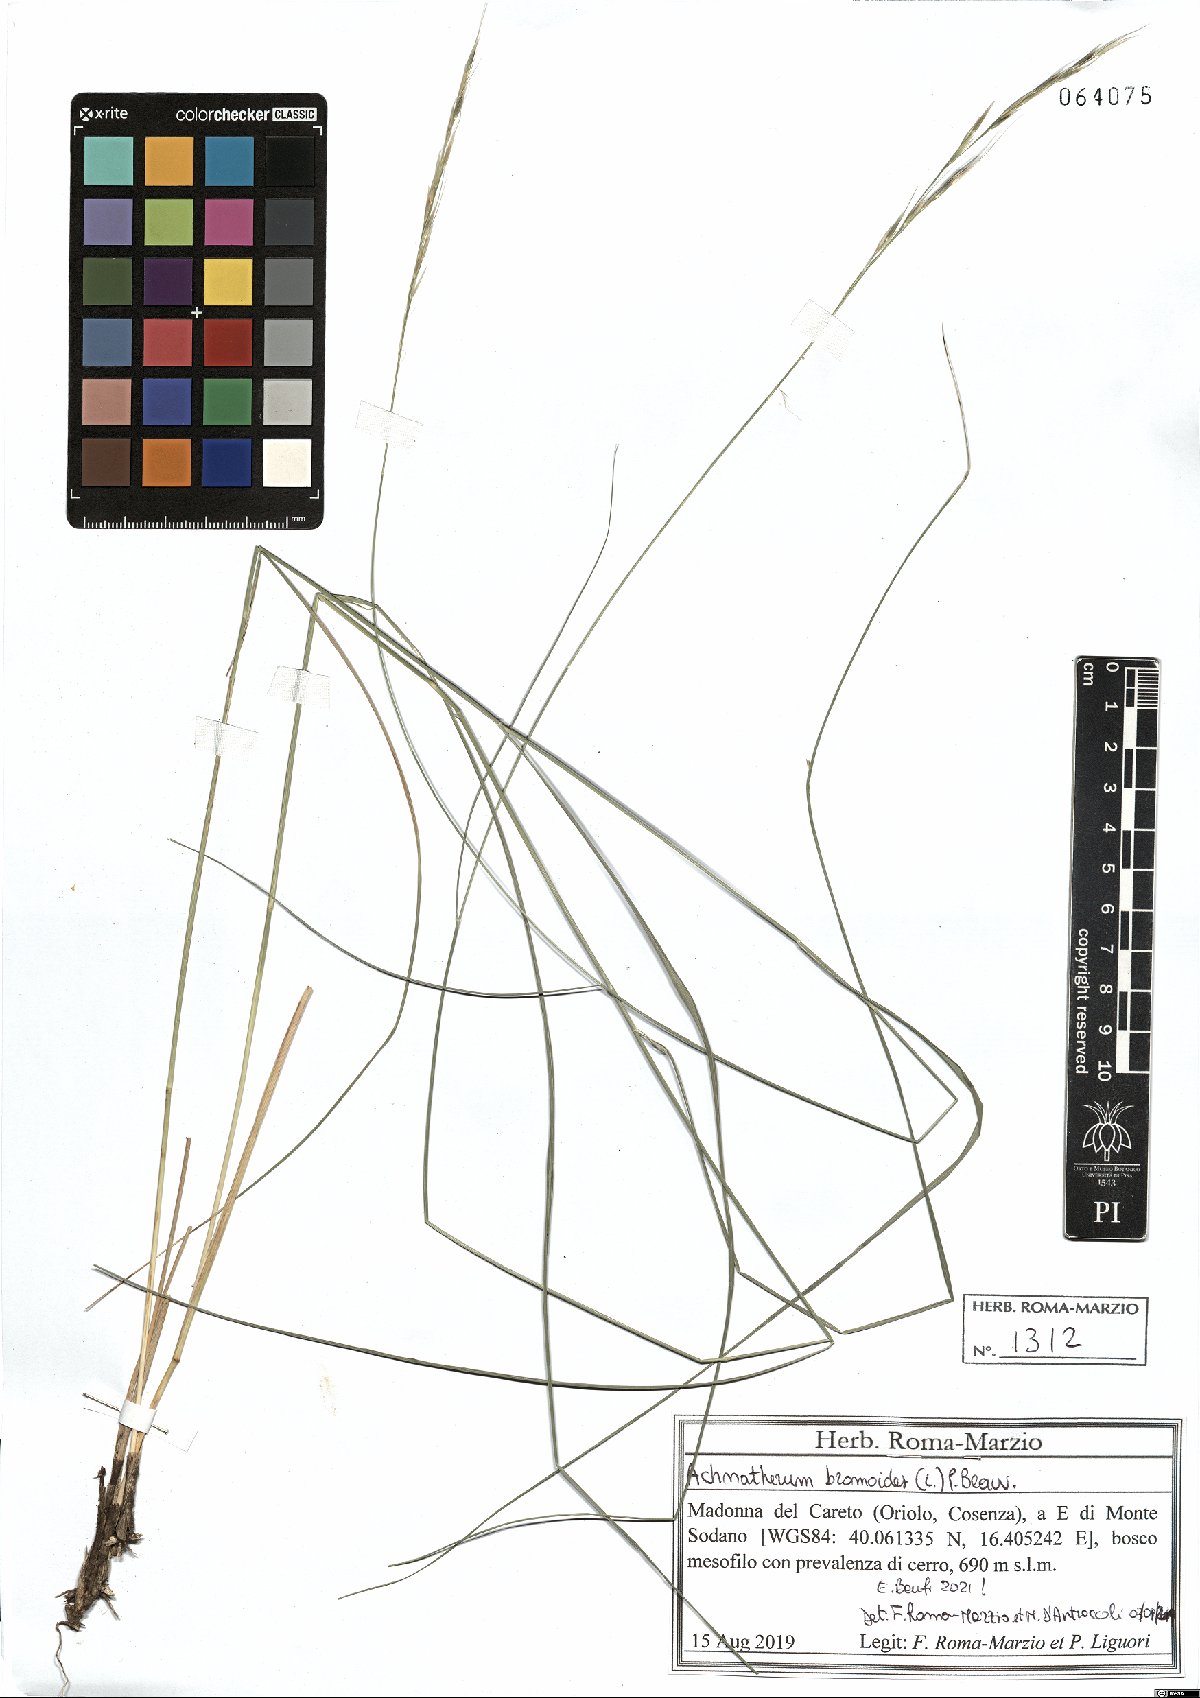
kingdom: Plantae
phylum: Tracheophyta
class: Liliopsida
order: Poales
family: Poaceae
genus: Achnatherum
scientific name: Achnatherum bromoides
